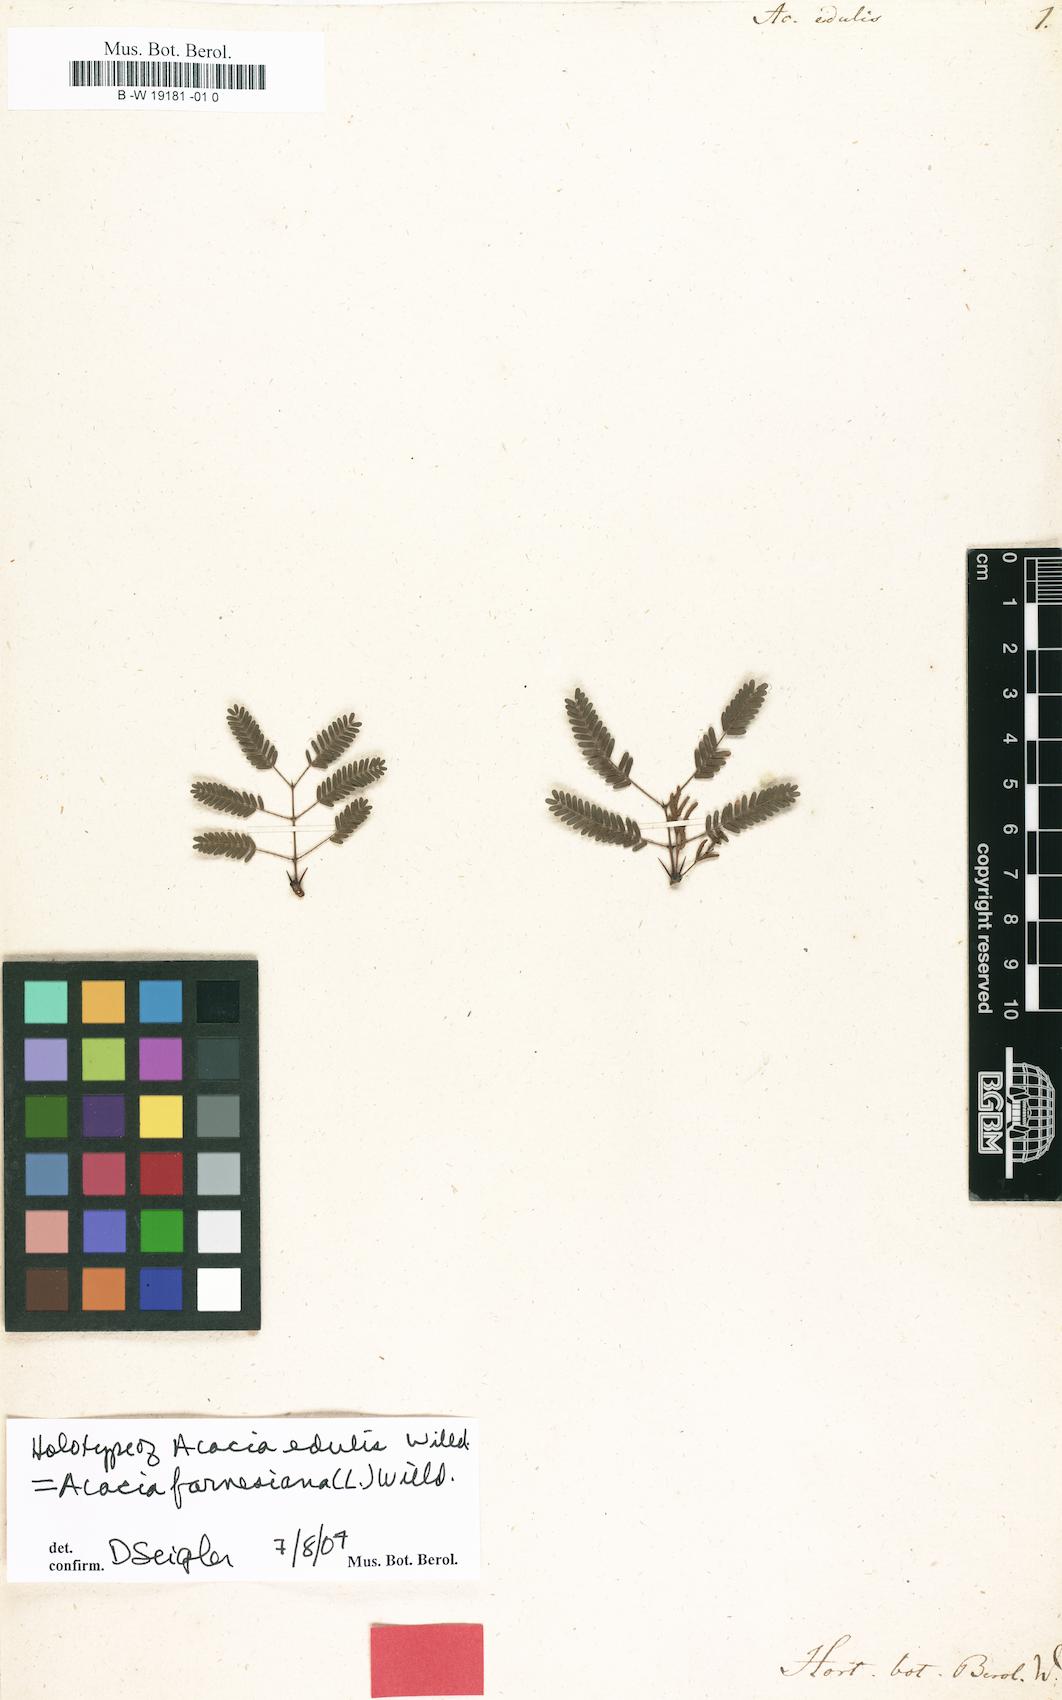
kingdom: Plantae
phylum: Tracheophyta
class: Magnoliopsida
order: Fabales
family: Fabaceae
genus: Vachellia
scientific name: Vachellia farnesiana
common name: Sweet acacia
